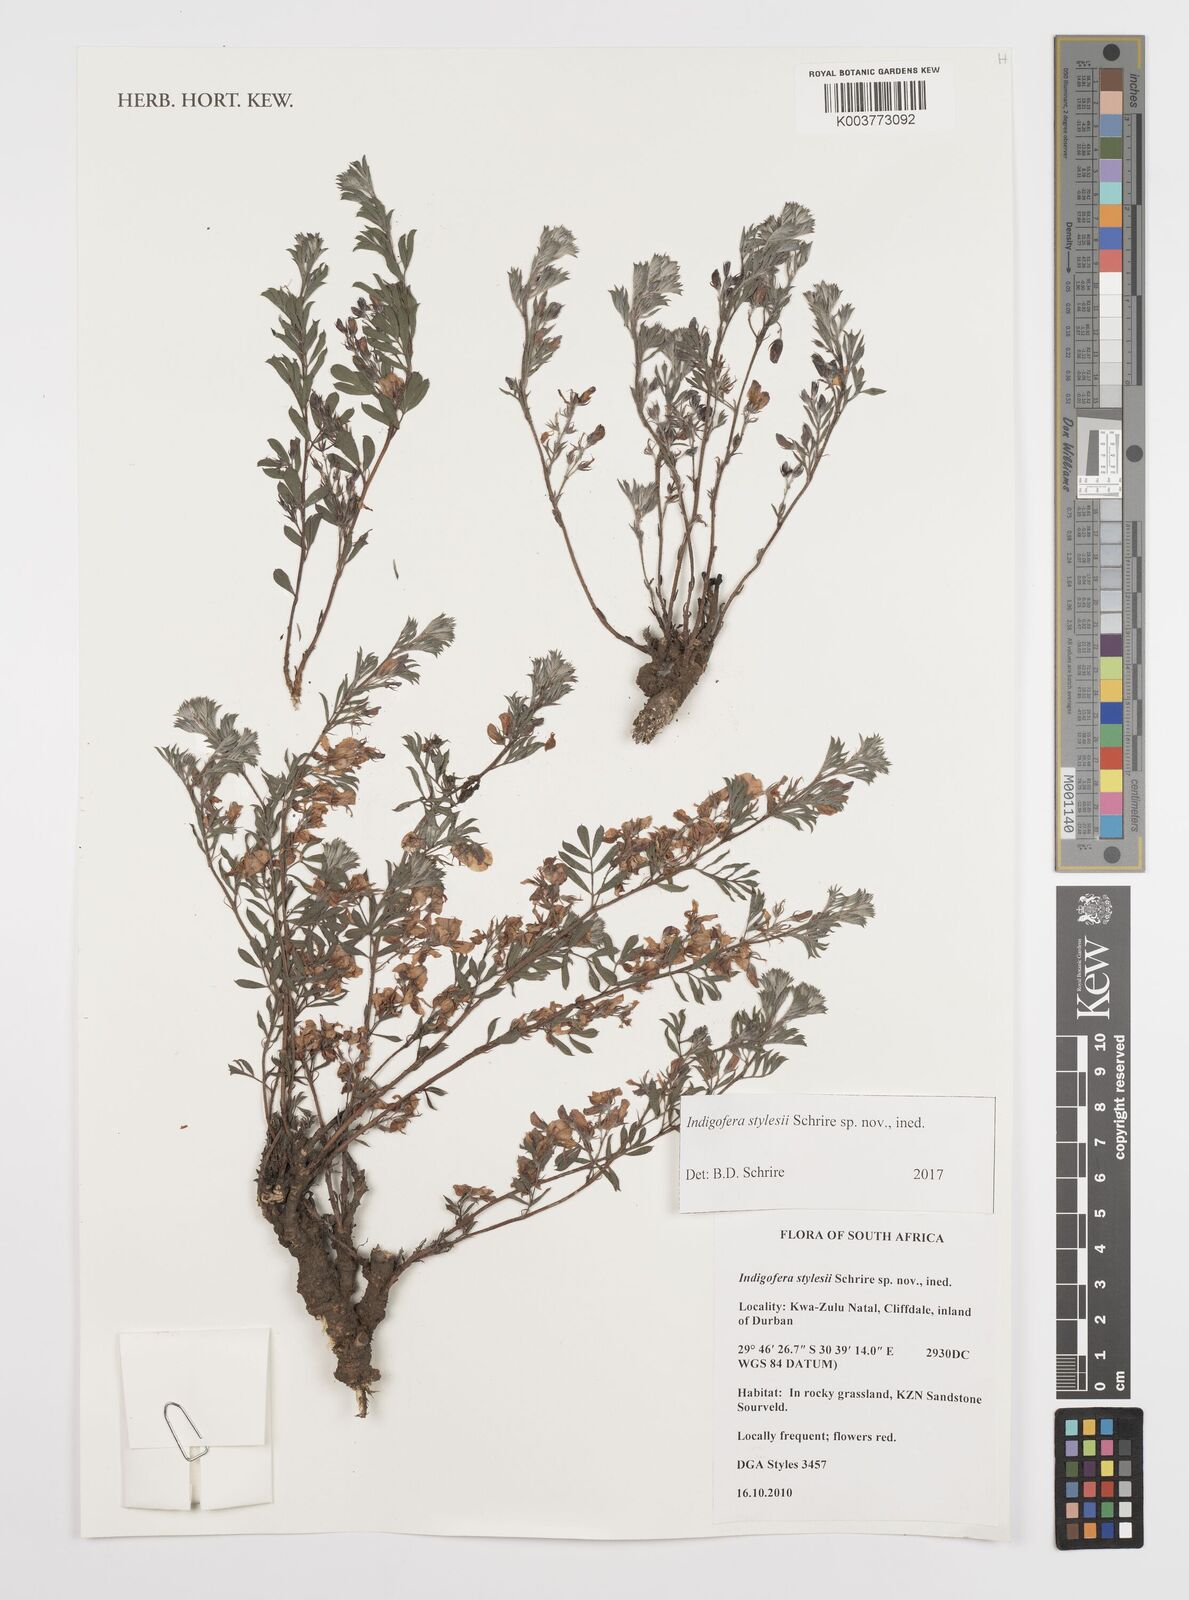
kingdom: Plantae
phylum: Tracheophyta
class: Magnoliopsida
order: Fabales
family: Fabaceae
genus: Indigofera
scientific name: Indigofera
